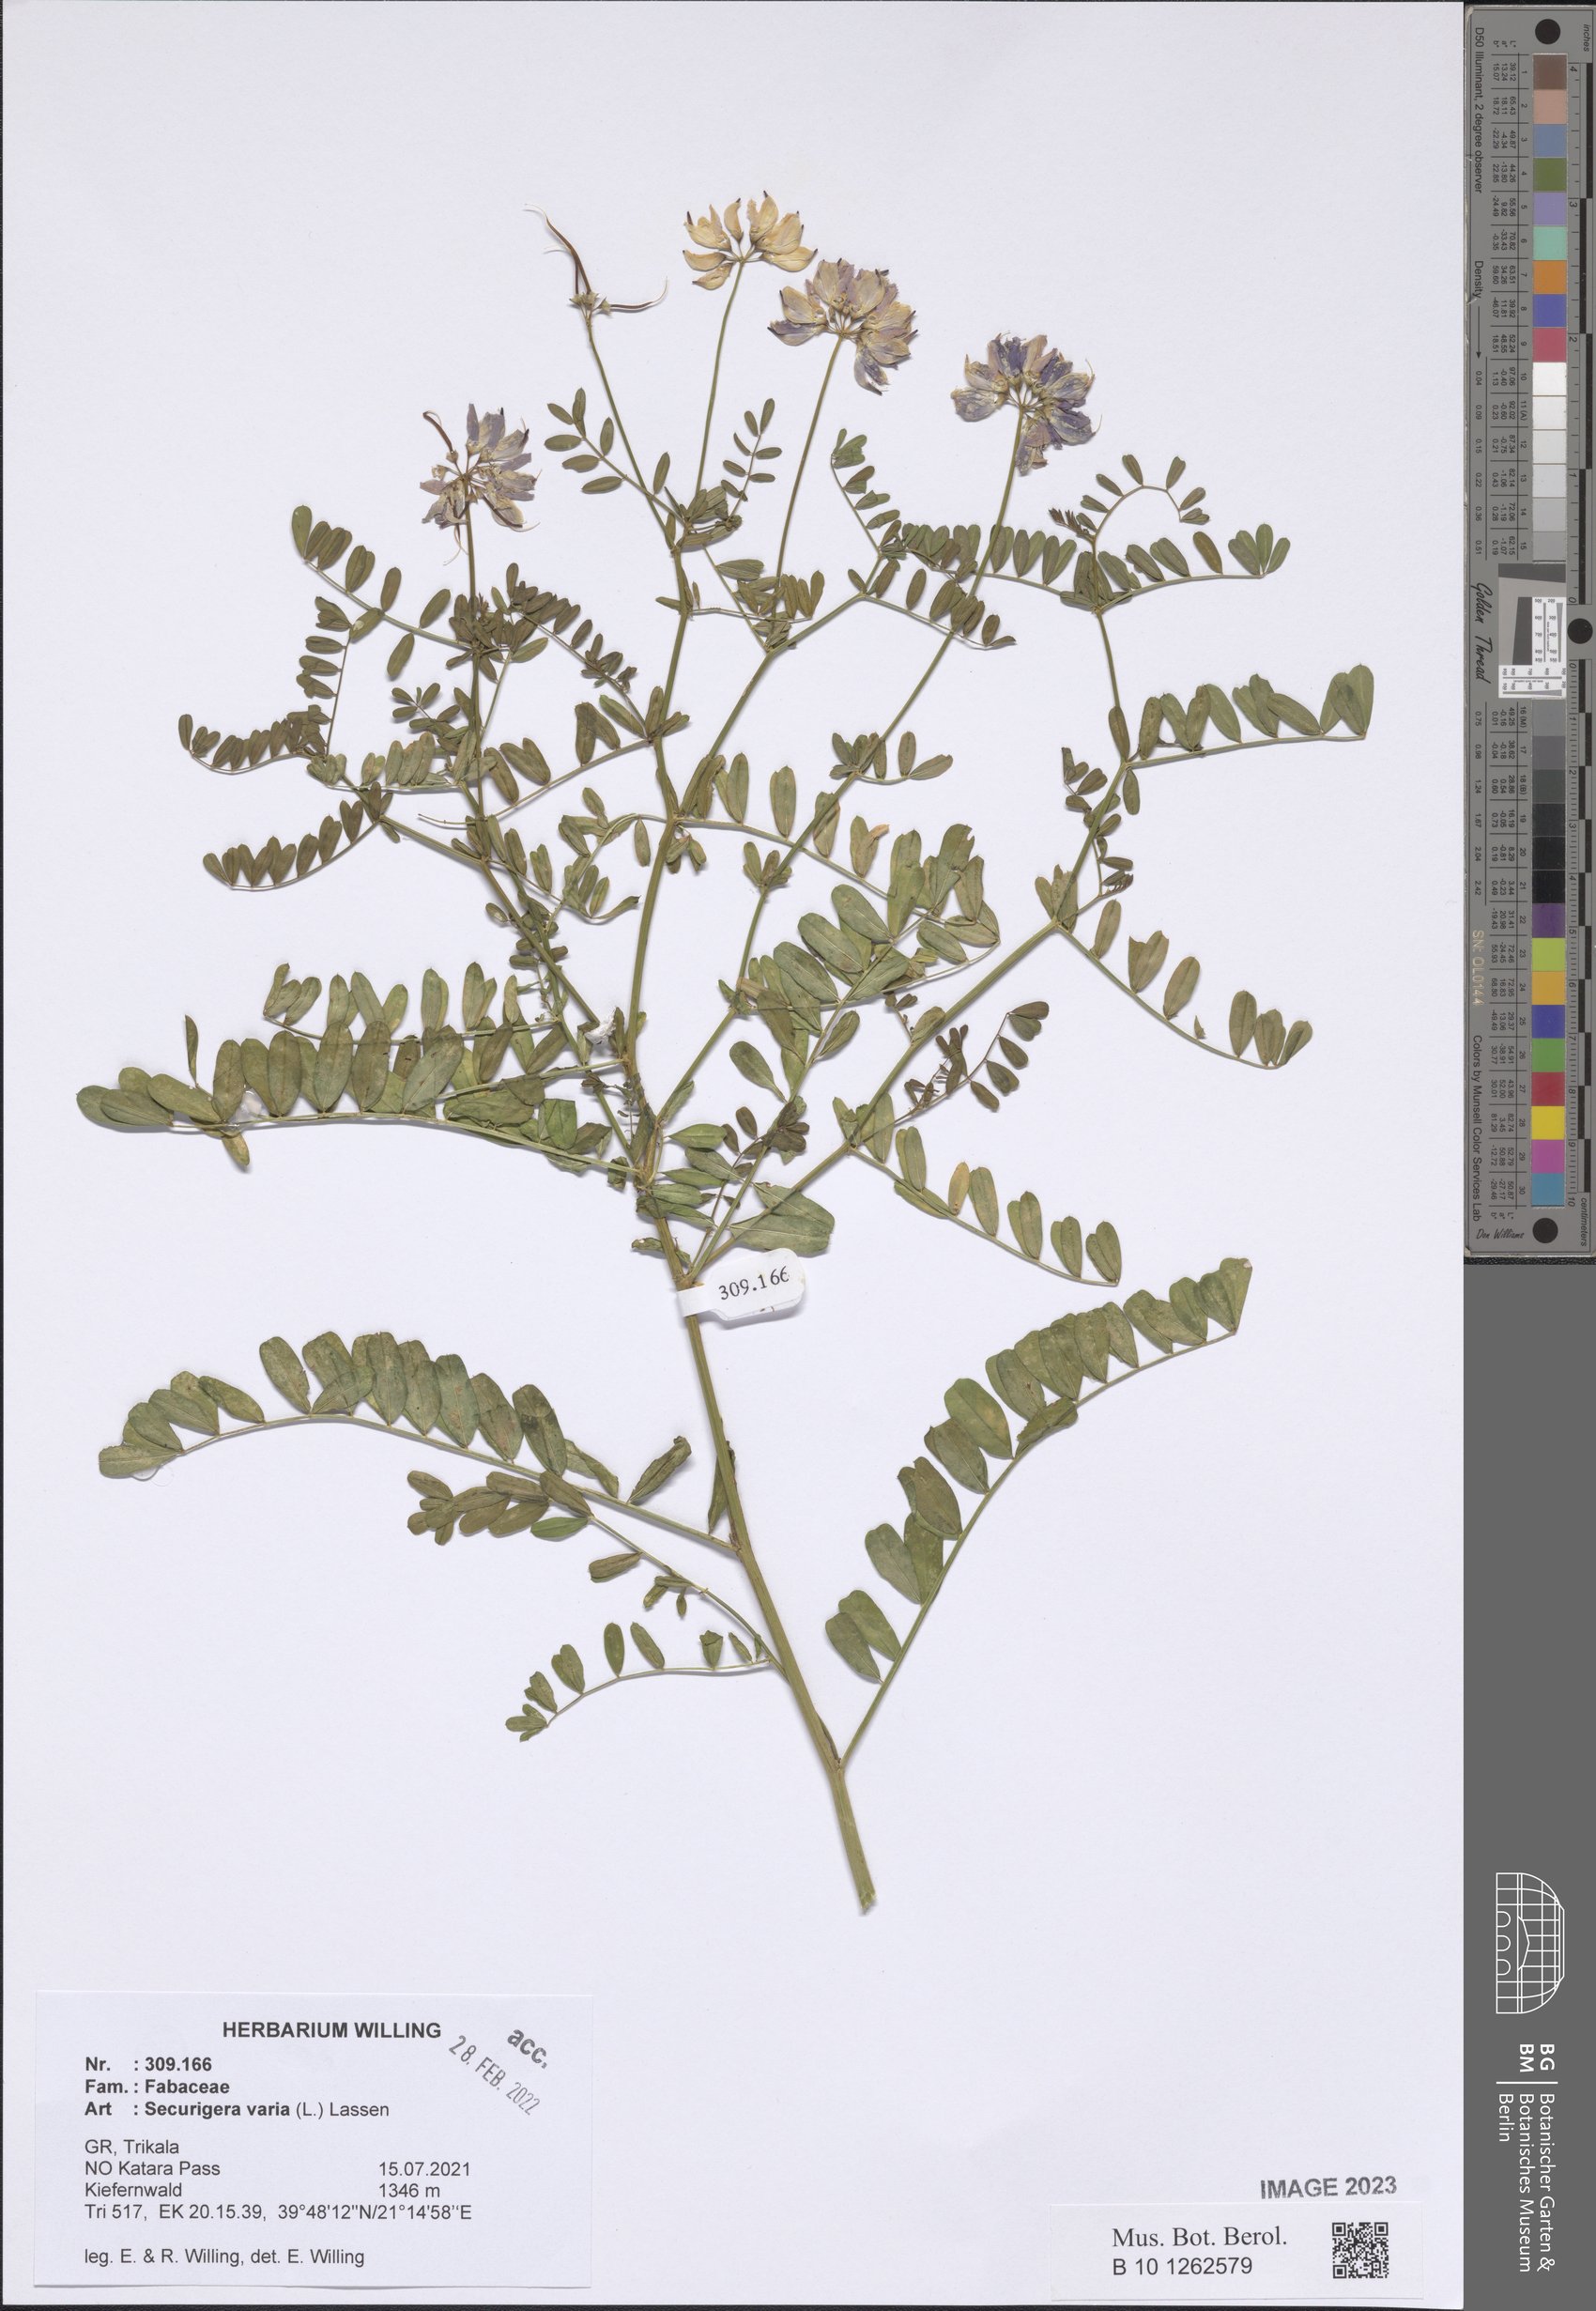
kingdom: Plantae
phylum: Tracheophyta
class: Magnoliopsida
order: Fabales
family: Fabaceae
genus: Coronilla
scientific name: Coronilla varia
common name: Crownvetch
